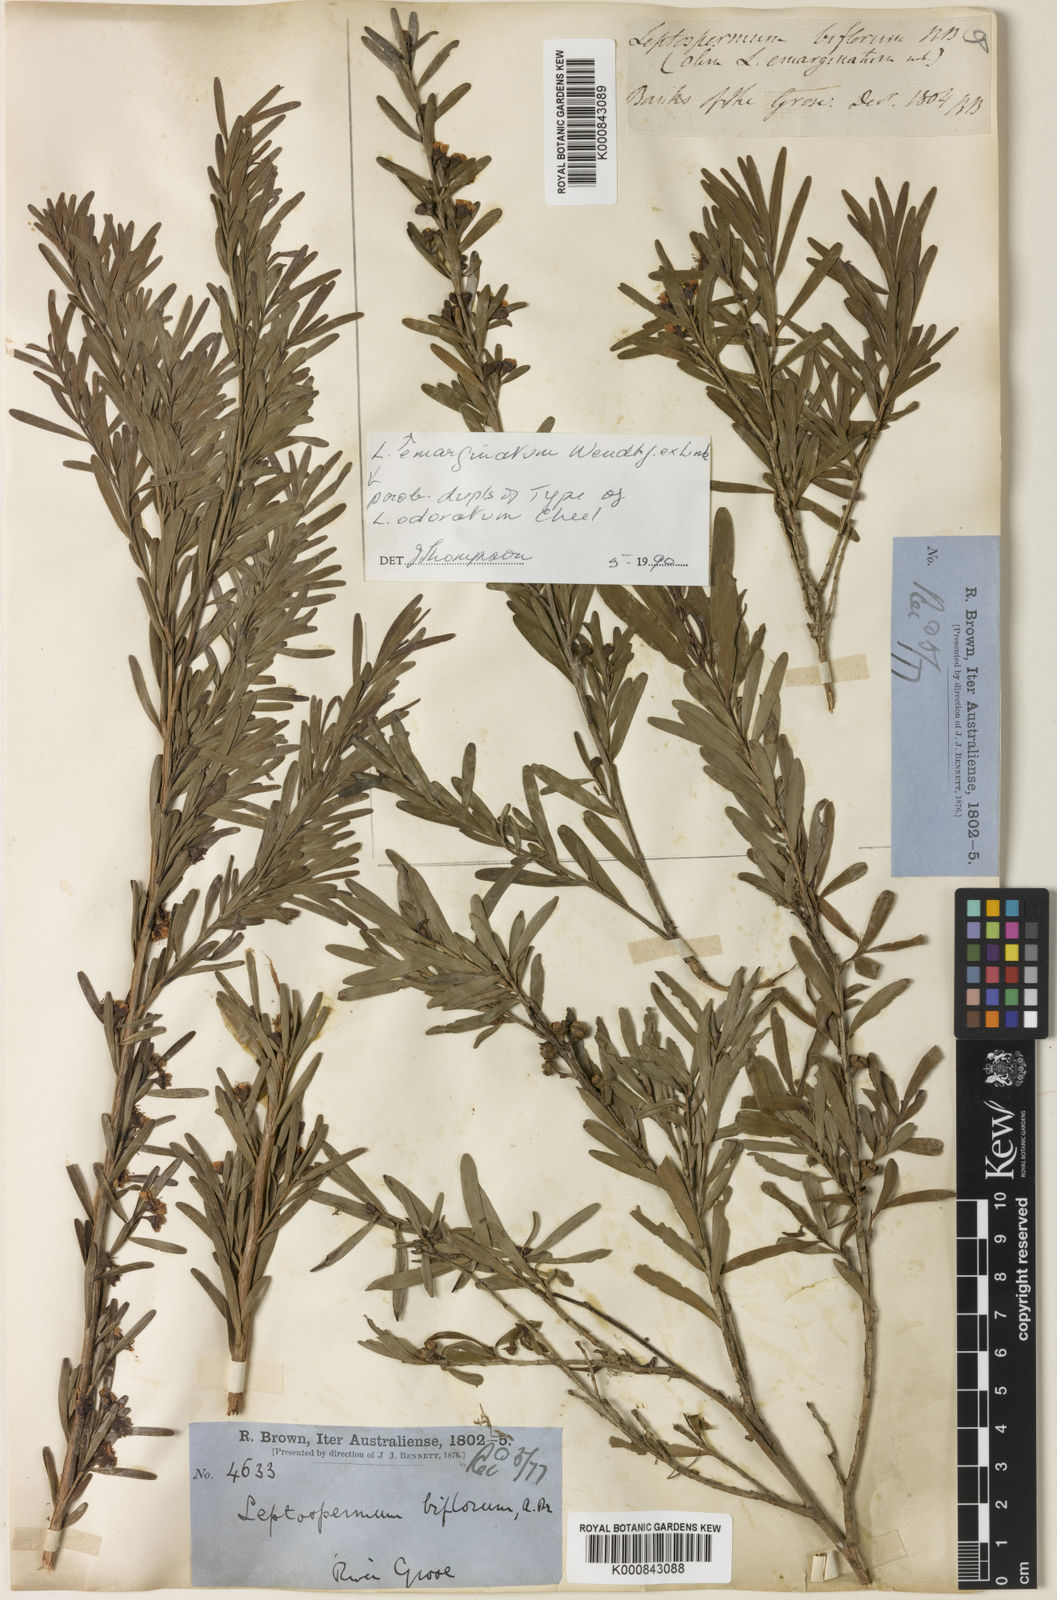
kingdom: Plantae
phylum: Tracheophyta
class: Magnoliopsida
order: Myrtales
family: Myrtaceae
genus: Leptospermum
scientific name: Leptospermum emarginatum
